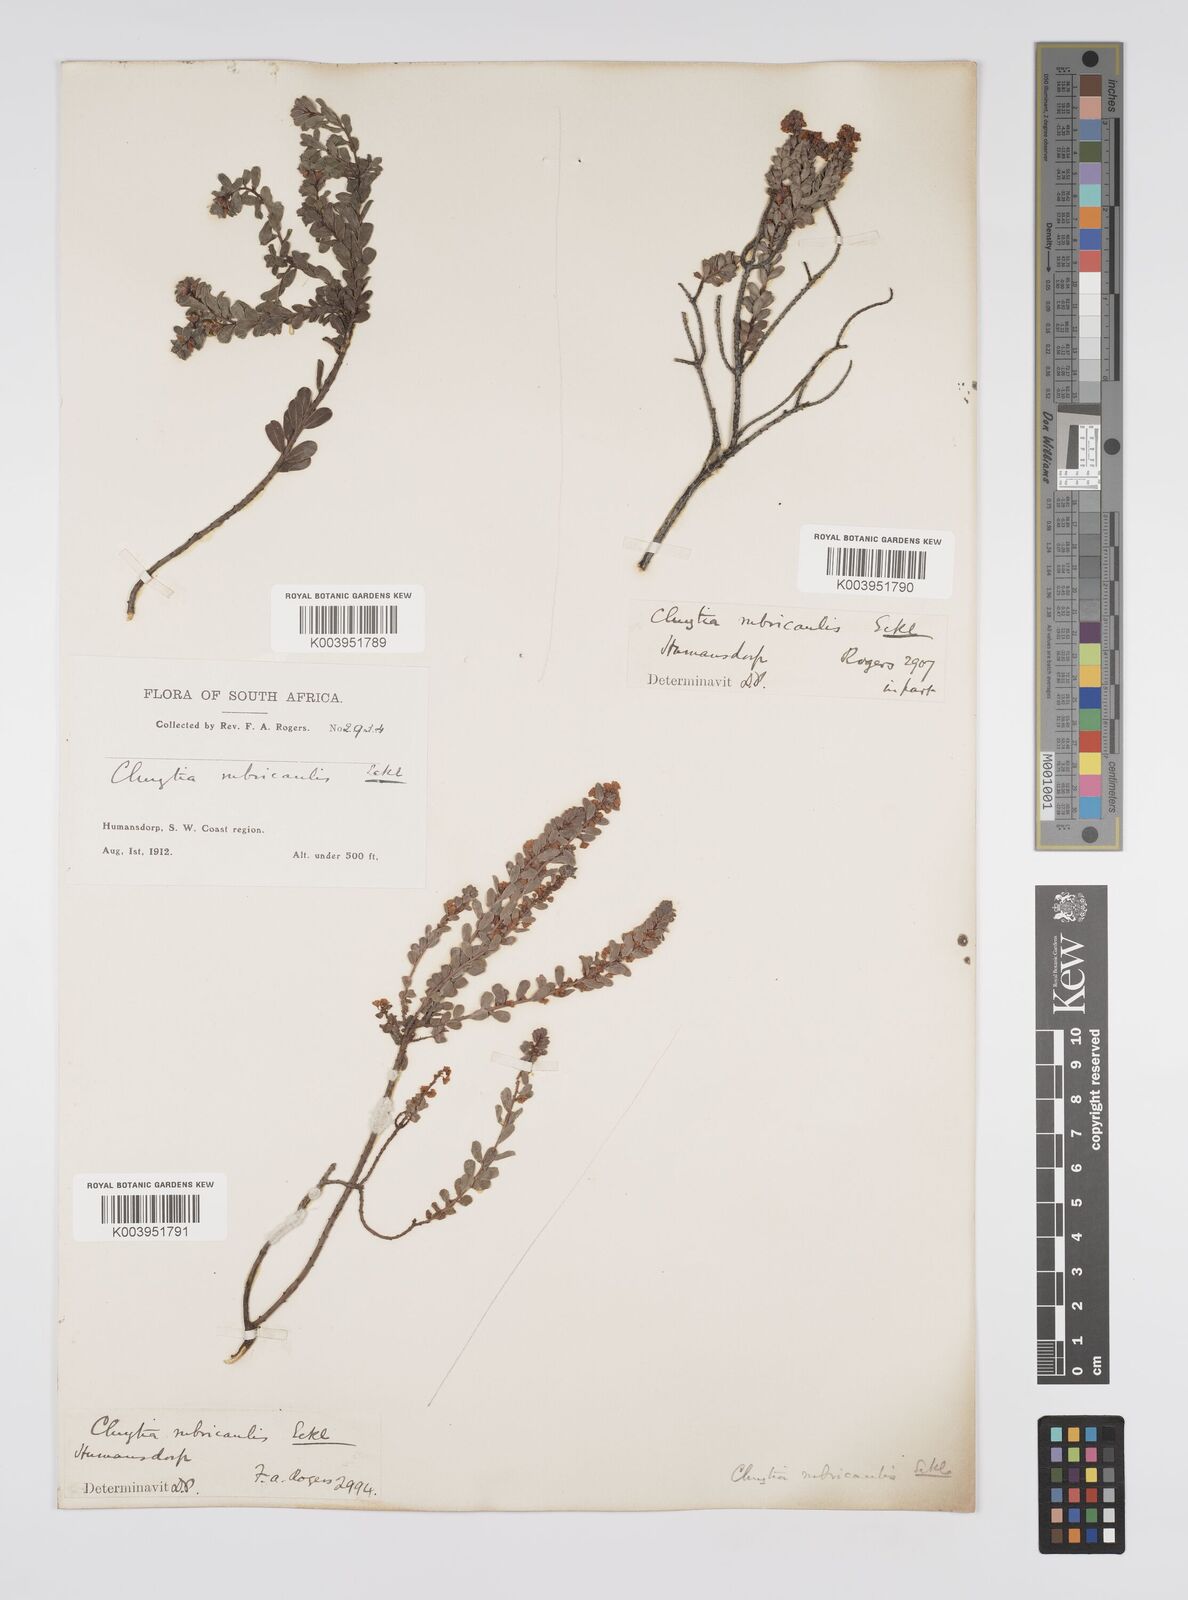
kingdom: Plantae
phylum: Tracheophyta
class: Magnoliopsida
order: Malpighiales
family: Peraceae
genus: Clutia
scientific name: Clutia rubricaulis
